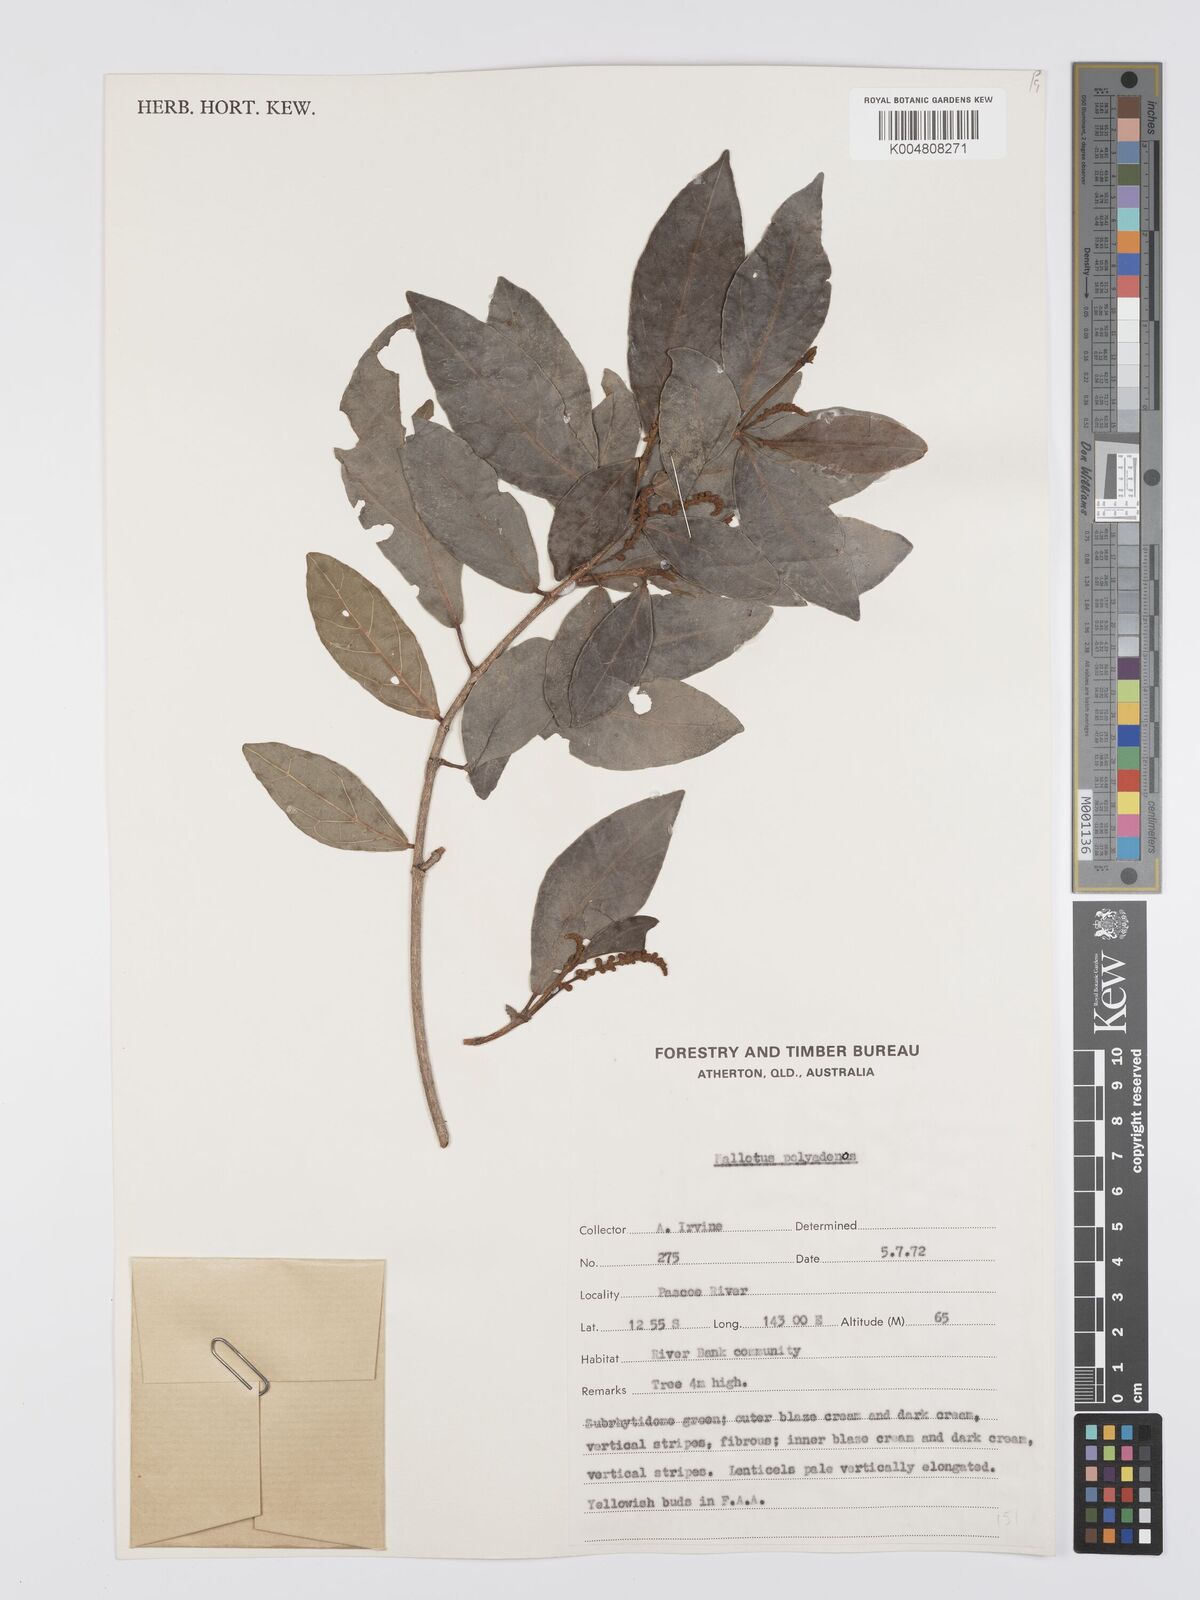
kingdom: Plantae
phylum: Tracheophyta
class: Magnoliopsida
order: Malpighiales
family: Euphorbiaceae
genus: Mallotus
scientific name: Mallotus polyadenos
